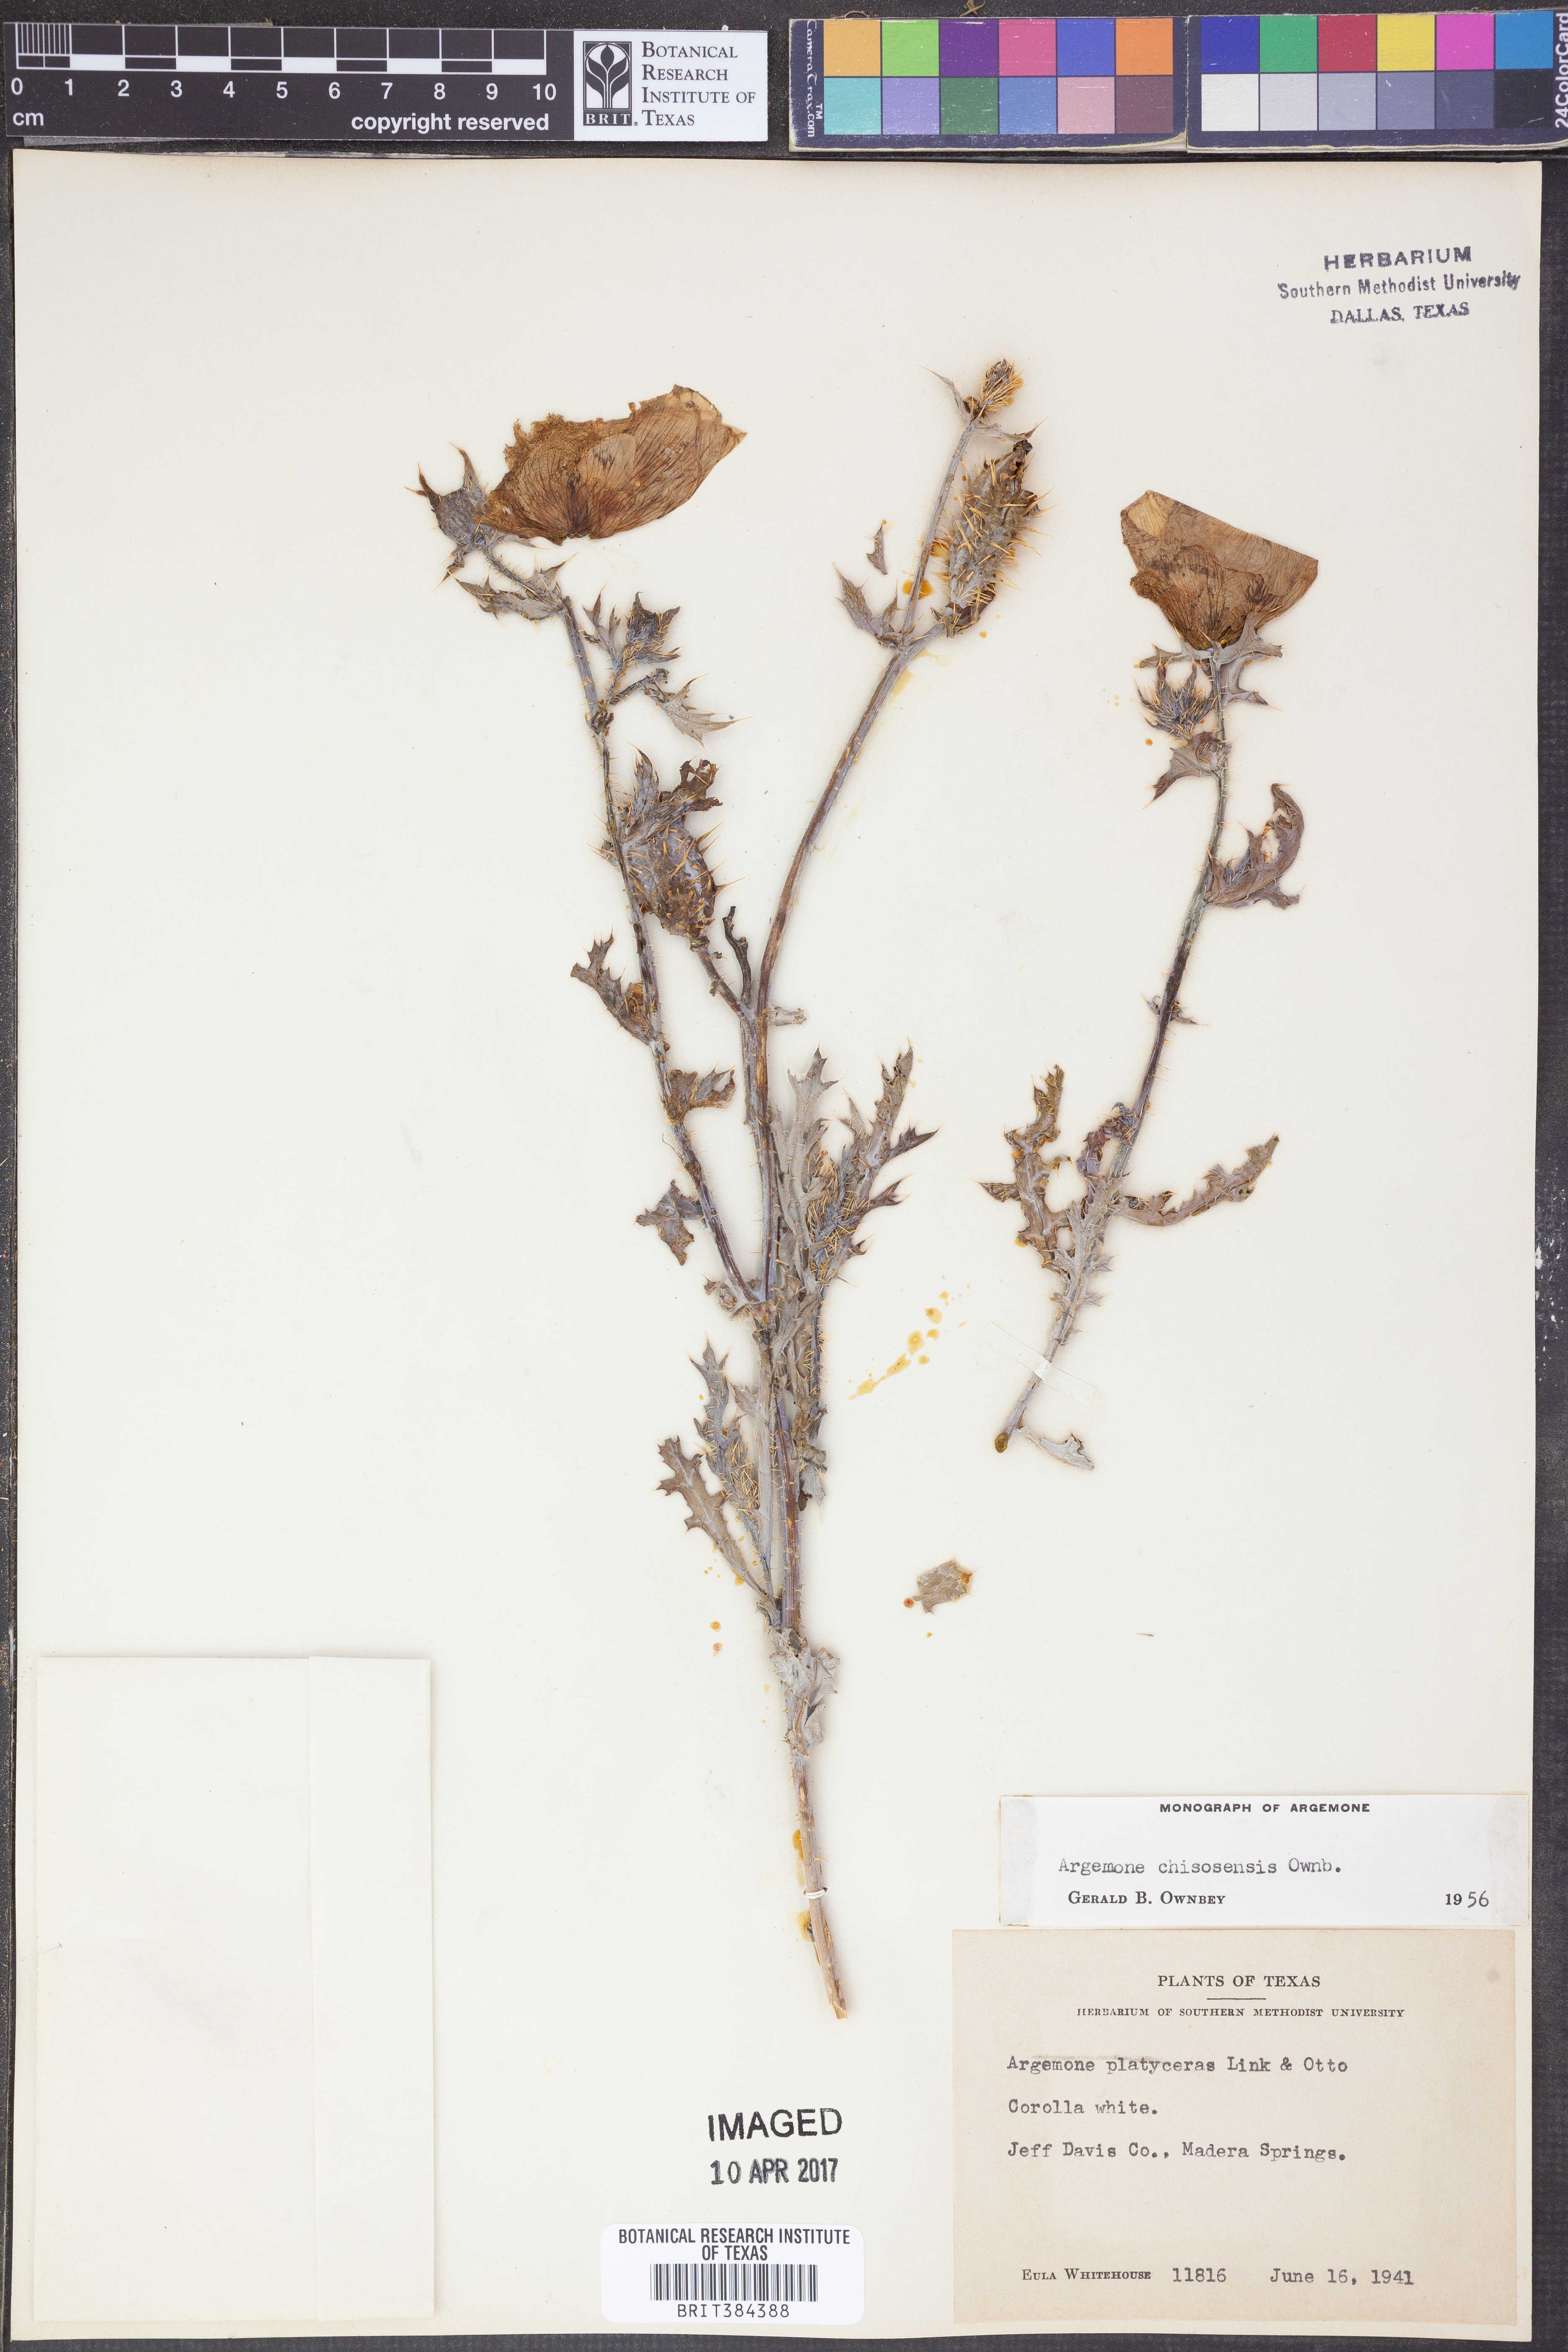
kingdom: Plantae
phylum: Tracheophyta
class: Magnoliopsida
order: Ranunculales
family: Papaveraceae
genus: Argemone
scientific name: Argemone chisosensis
